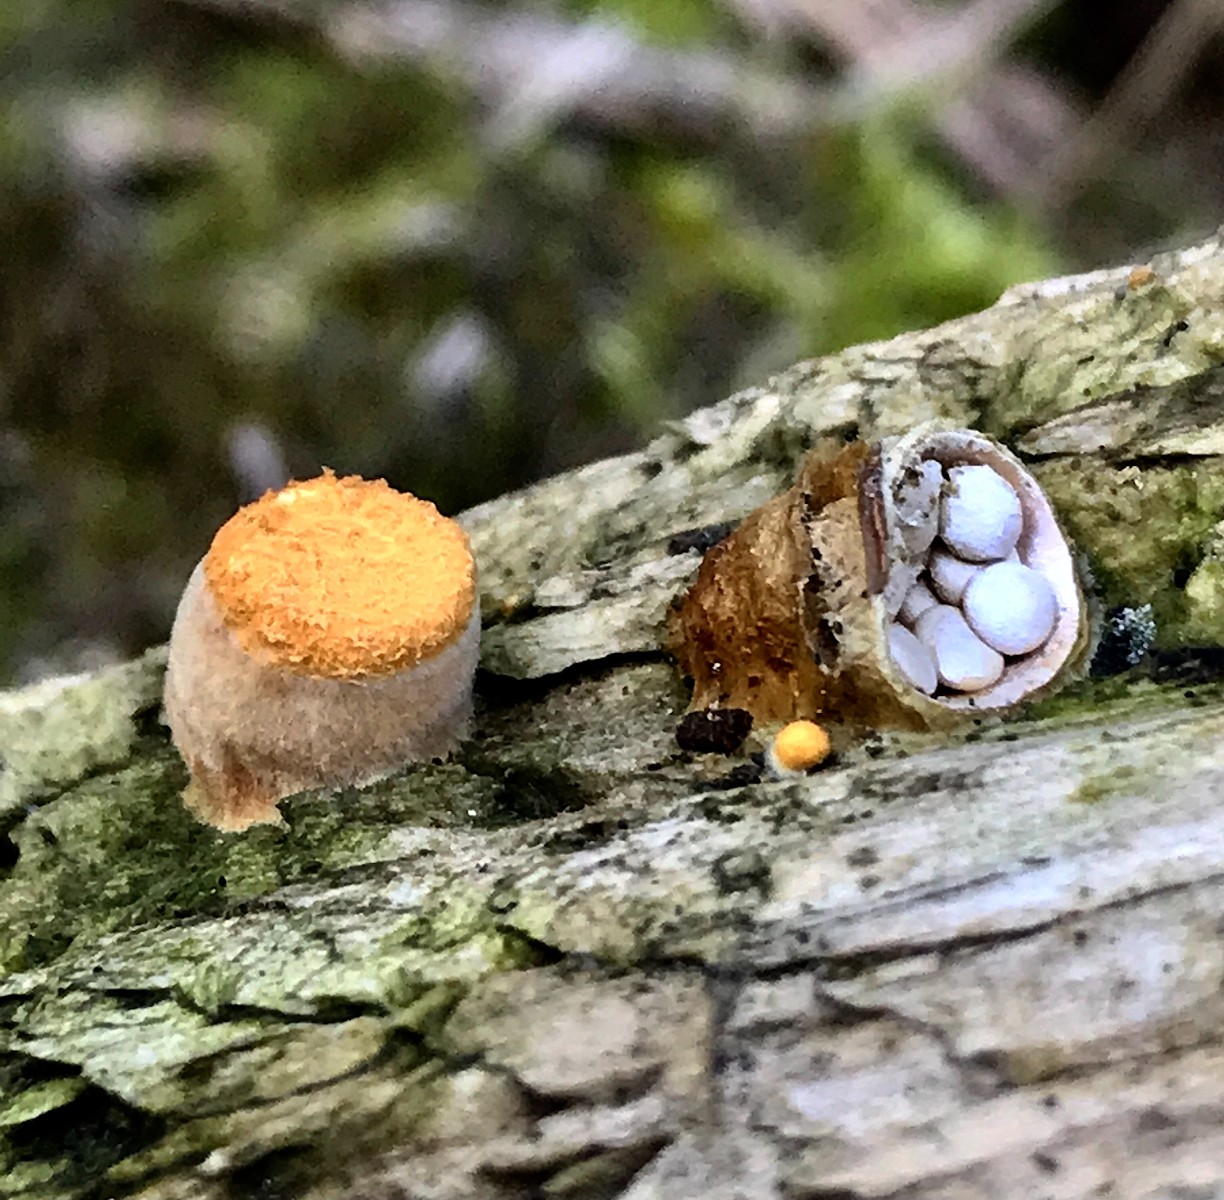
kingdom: Fungi
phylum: Basidiomycota
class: Agaricomycetes
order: Agaricales
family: Nidulariaceae
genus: Crucibulum
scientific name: Crucibulum crucibuliforme
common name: krukkesvamp
